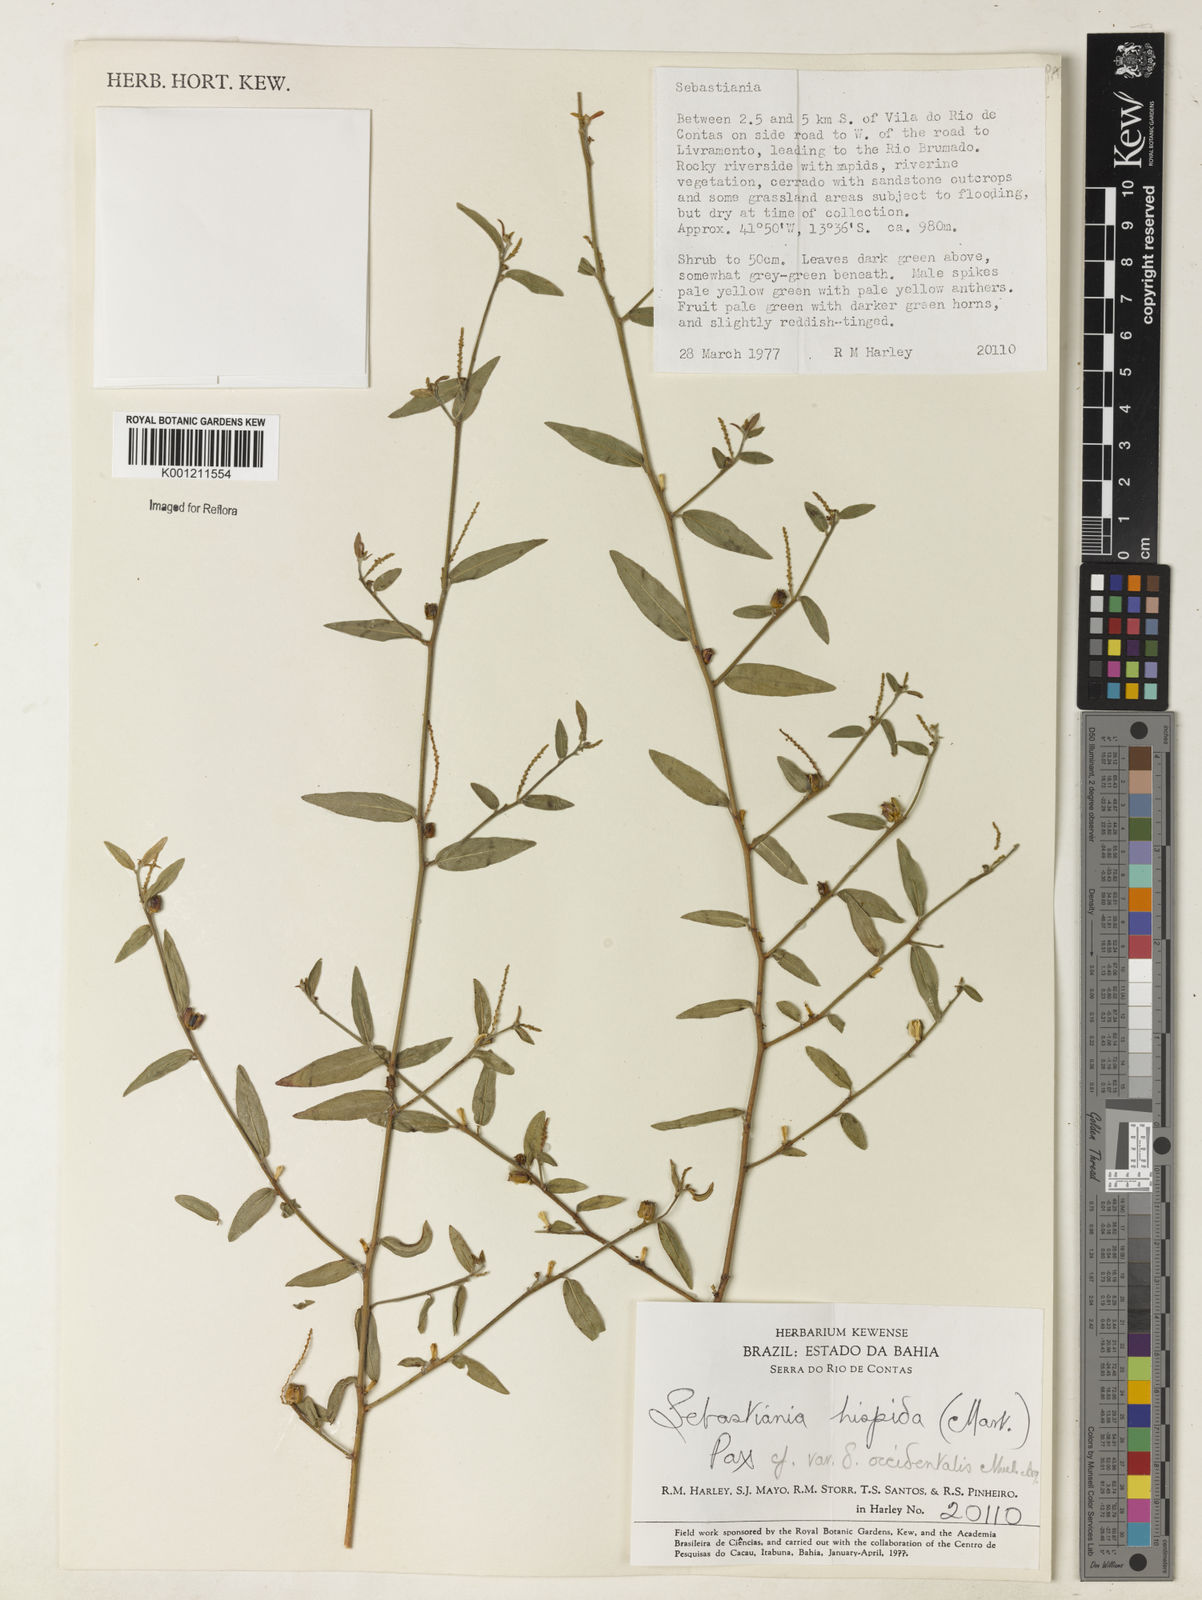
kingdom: Plantae
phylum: Tracheophyta
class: Magnoliopsida
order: Malpighiales
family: Euphorbiaceae
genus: Microstachys
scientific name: Microstachys hispida
